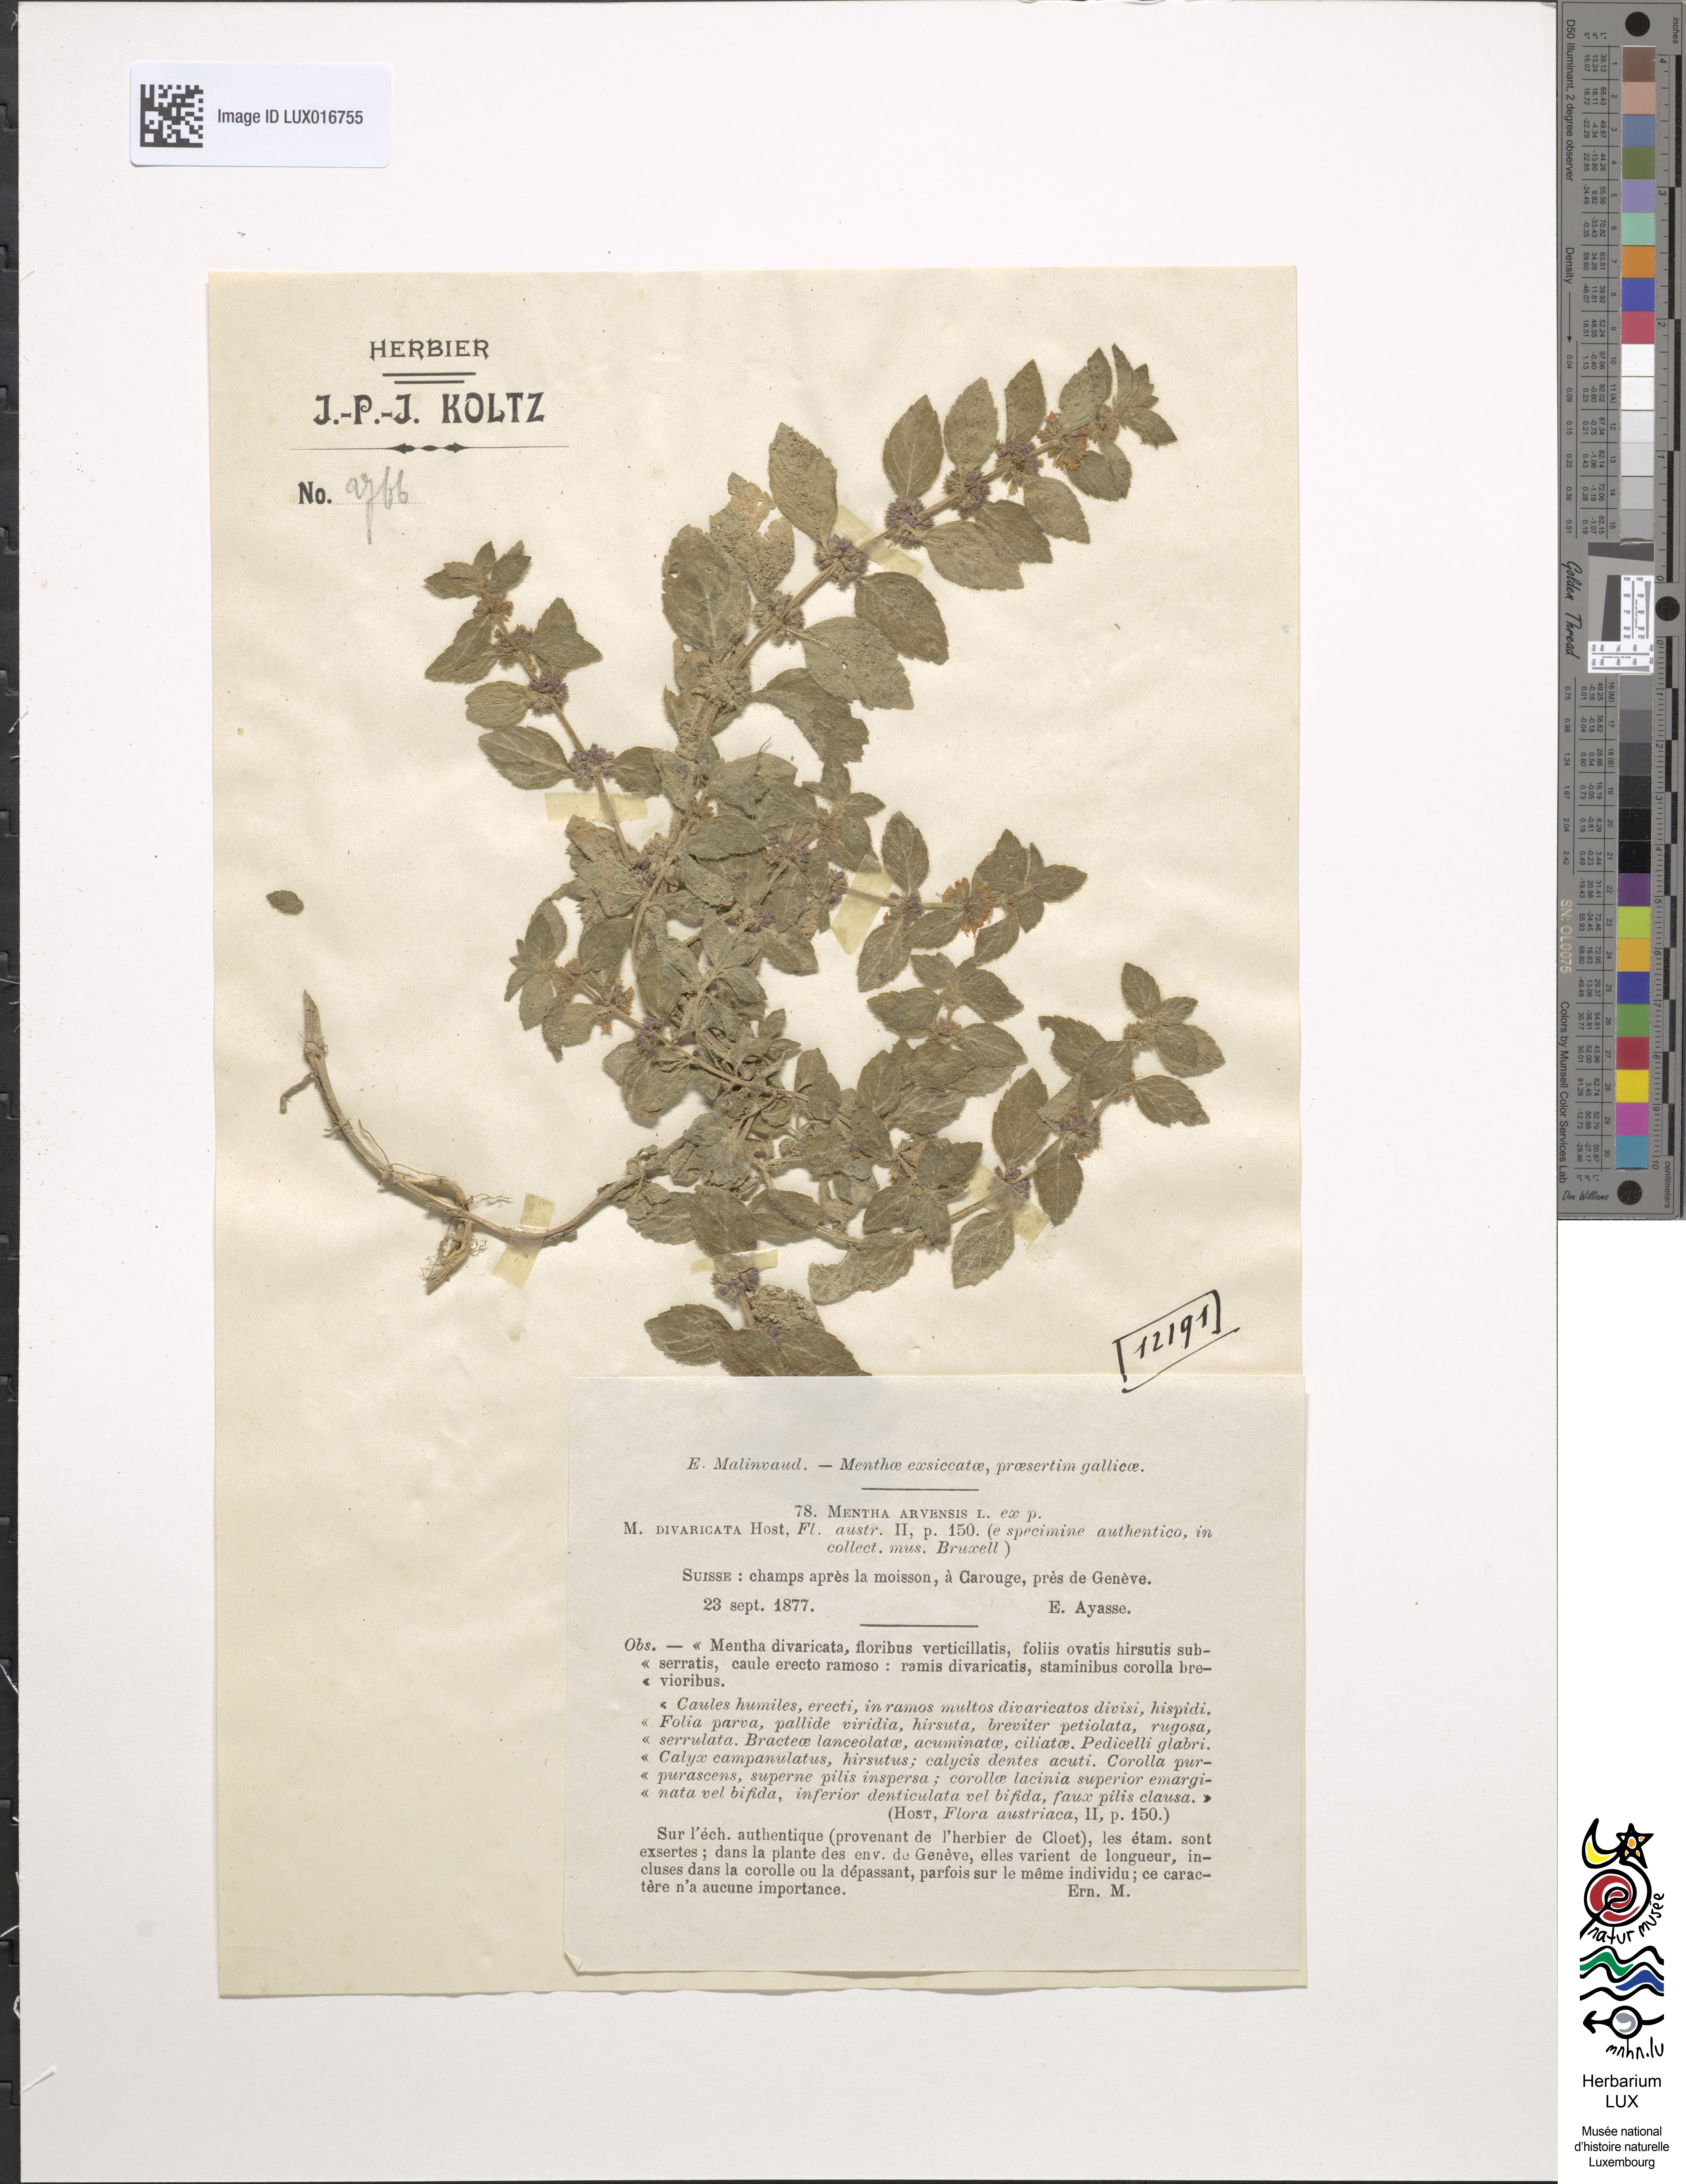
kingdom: Plantae
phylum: Tracheophyta
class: Magnoliopsida
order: Lamiales
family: Lamiaceae
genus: Mentha
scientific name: Mentha arvensis
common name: Corn mint
